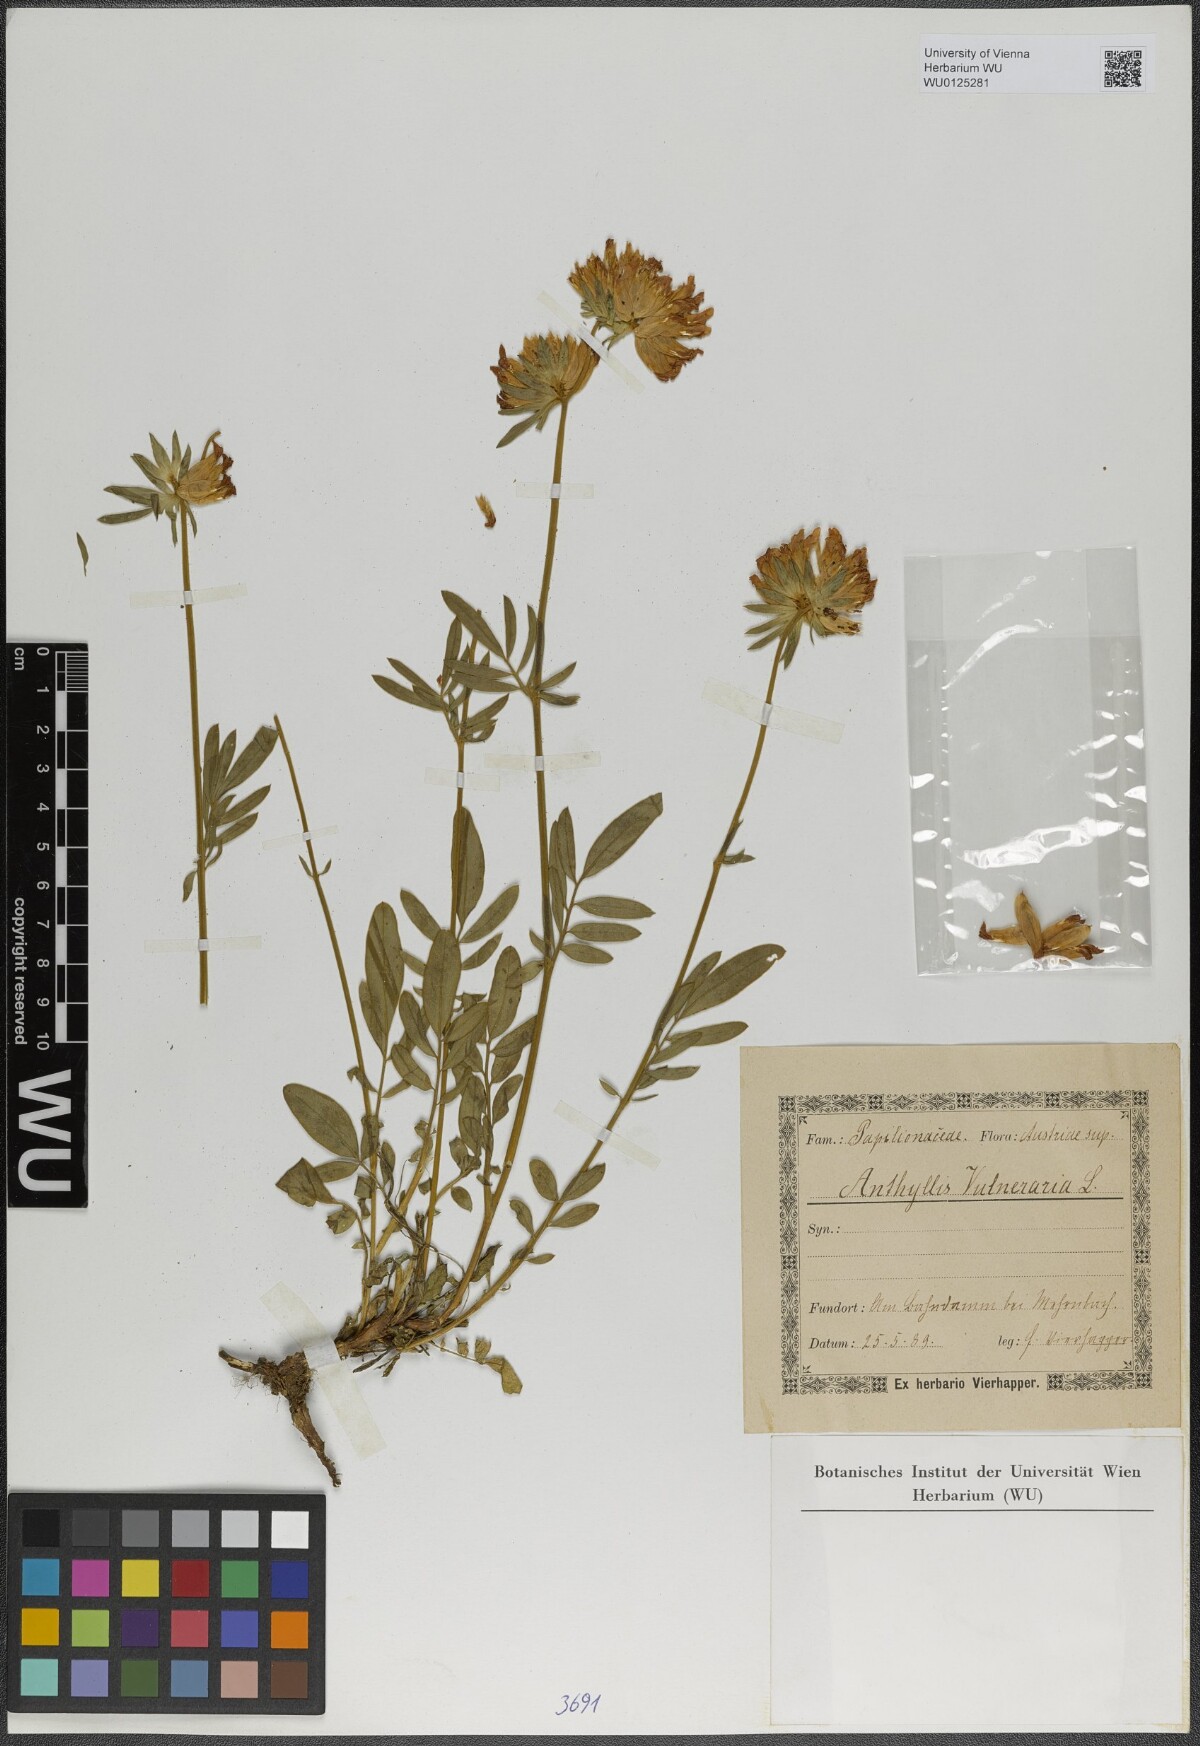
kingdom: Plantae
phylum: Tracheophyta
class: Magnoliopsida
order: Fabales
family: Fabaceae
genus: Anthyllis
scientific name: Anthyllis vulneraria
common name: Kidney vetch
